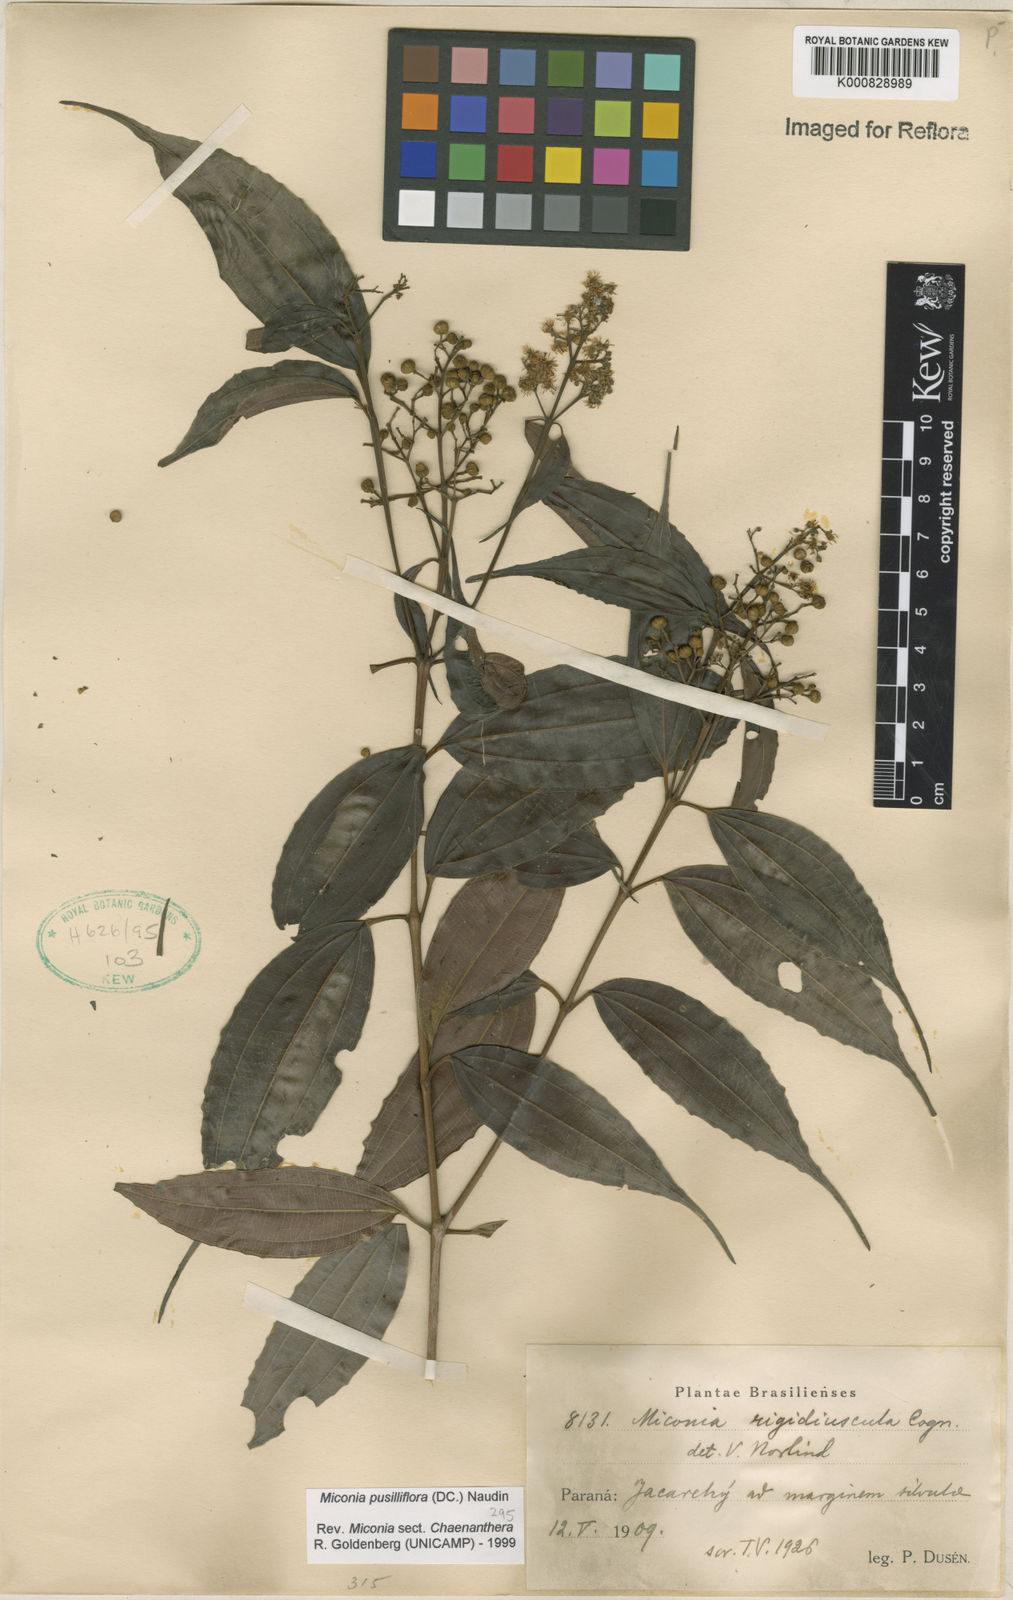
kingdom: Plantae
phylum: Tracheophyta
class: Magnoliopsida
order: Myrtales
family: Melastomataceae
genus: Miconia
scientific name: Miconia pusilliflora
